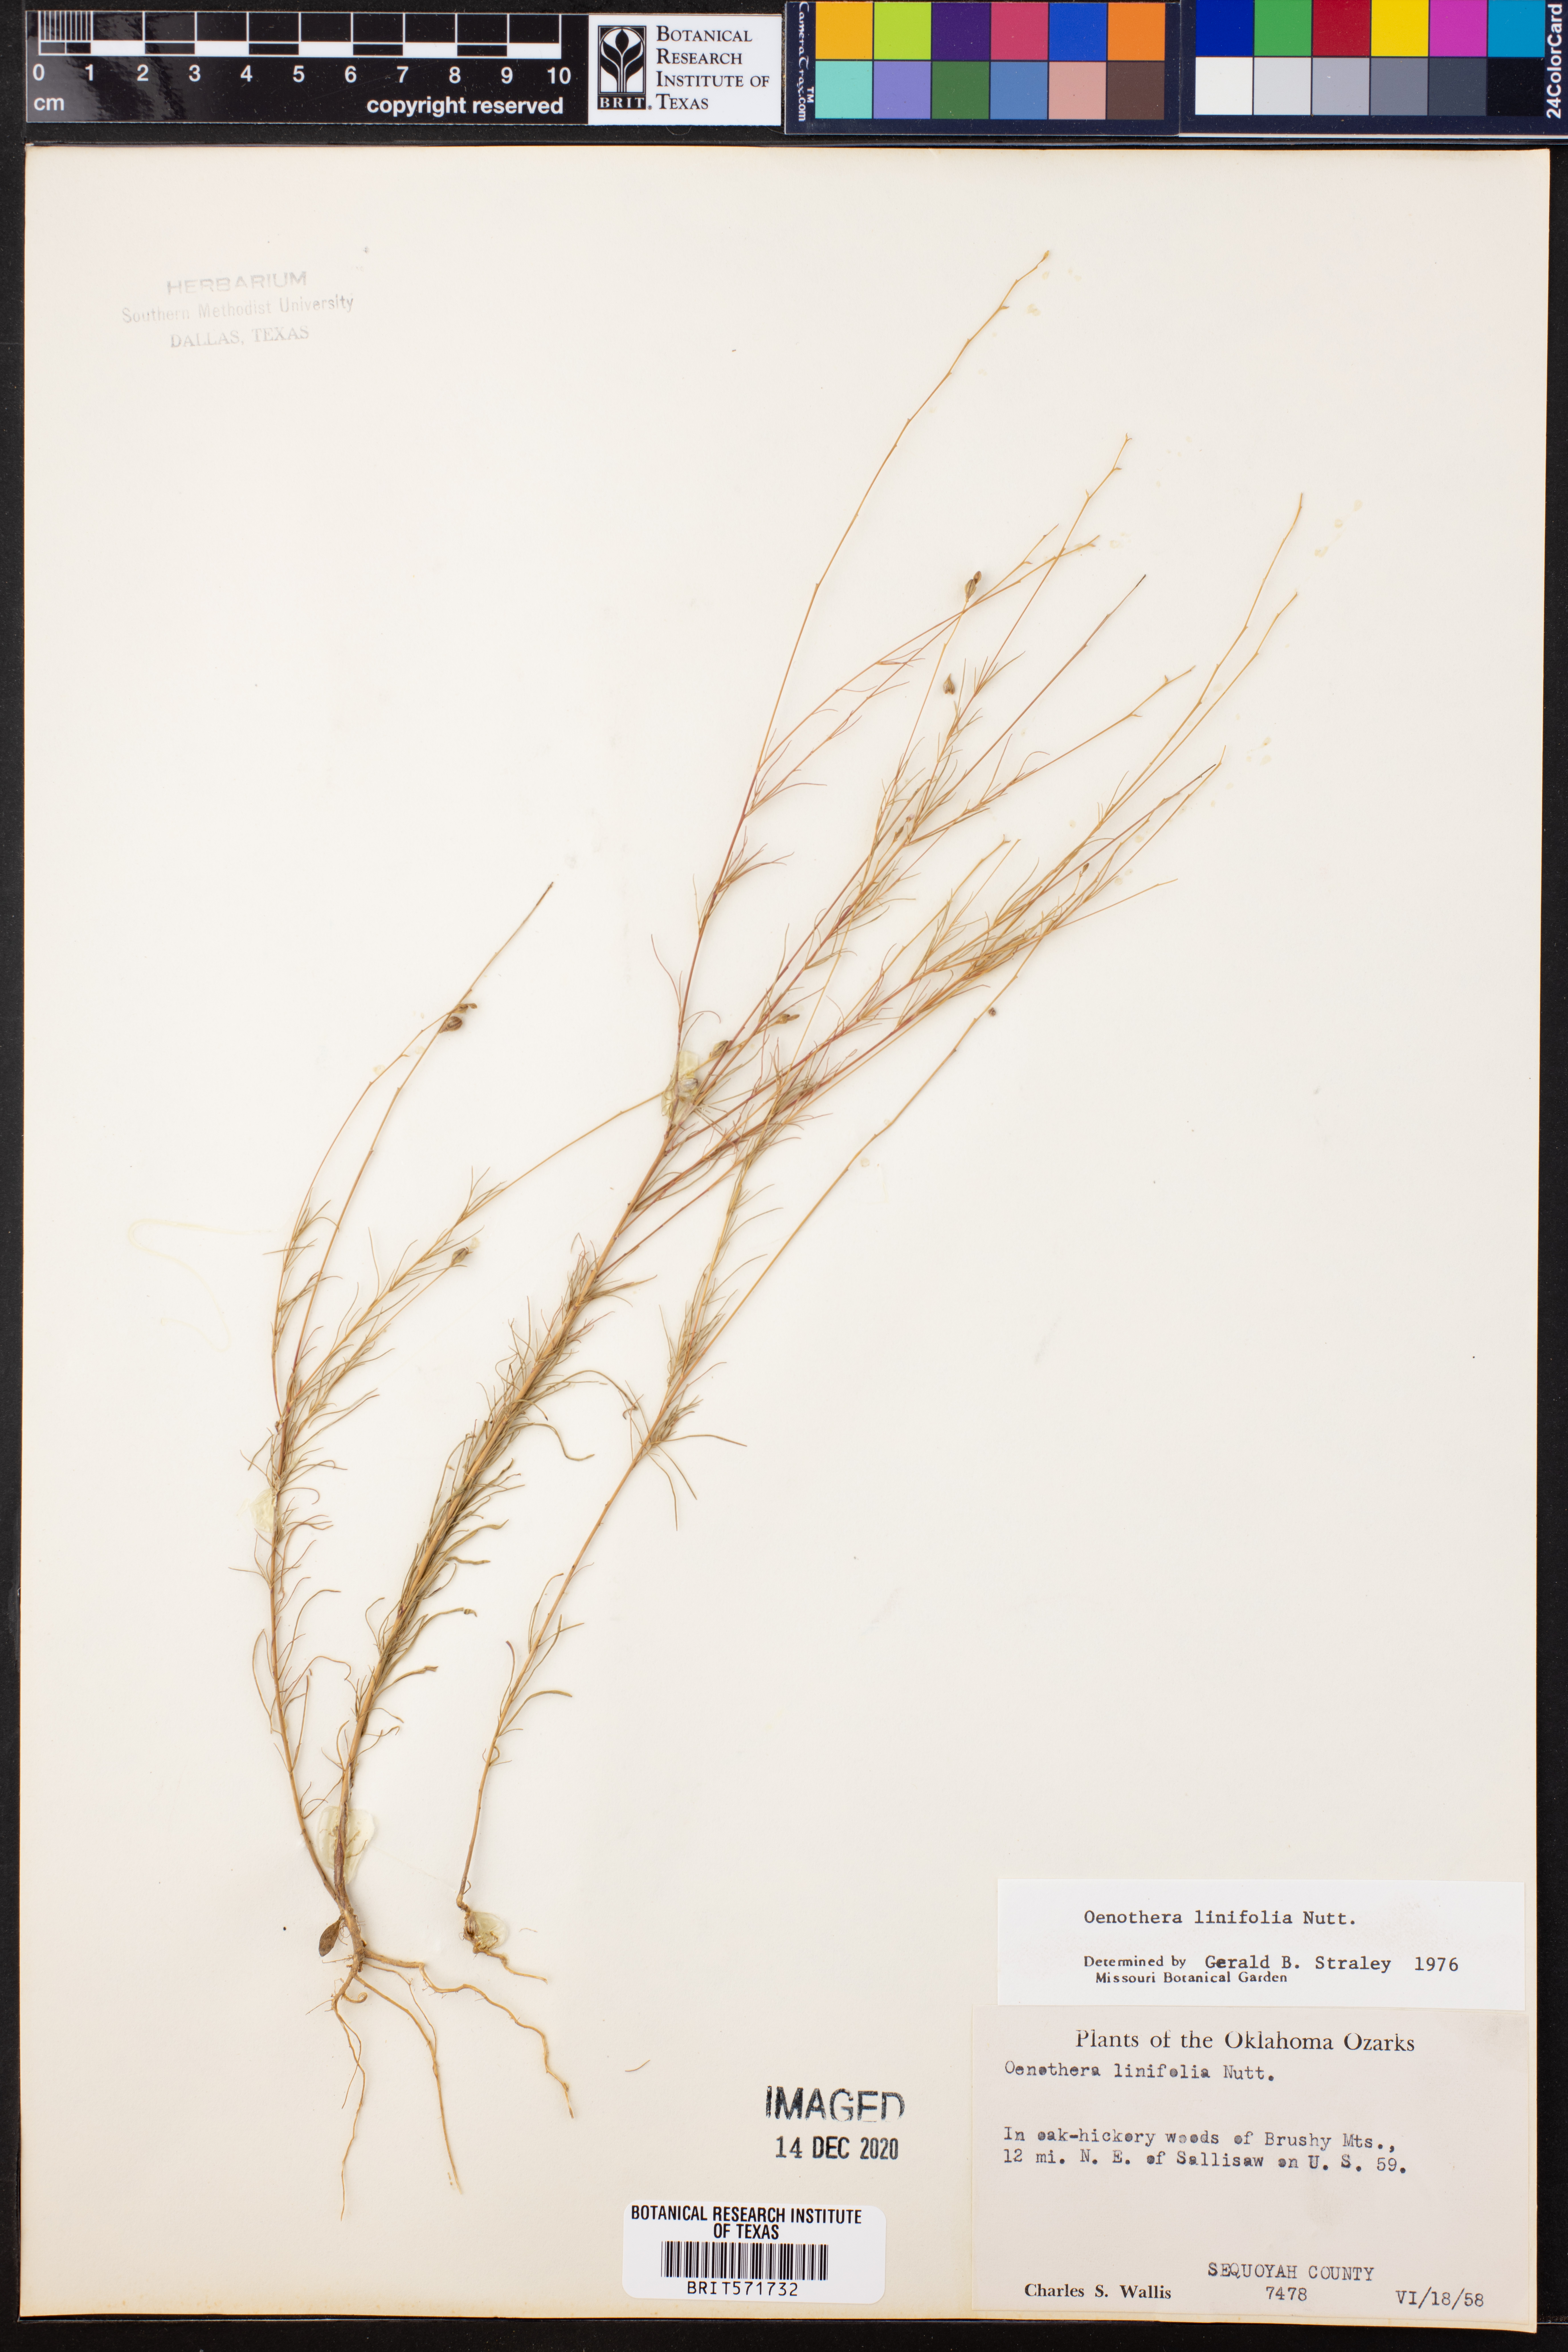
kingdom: Plantae
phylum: Tracheophyta
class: Magnoliopsida
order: Myrtales
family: Onagraceae
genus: Oenothera
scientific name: Oenothera linifolia
